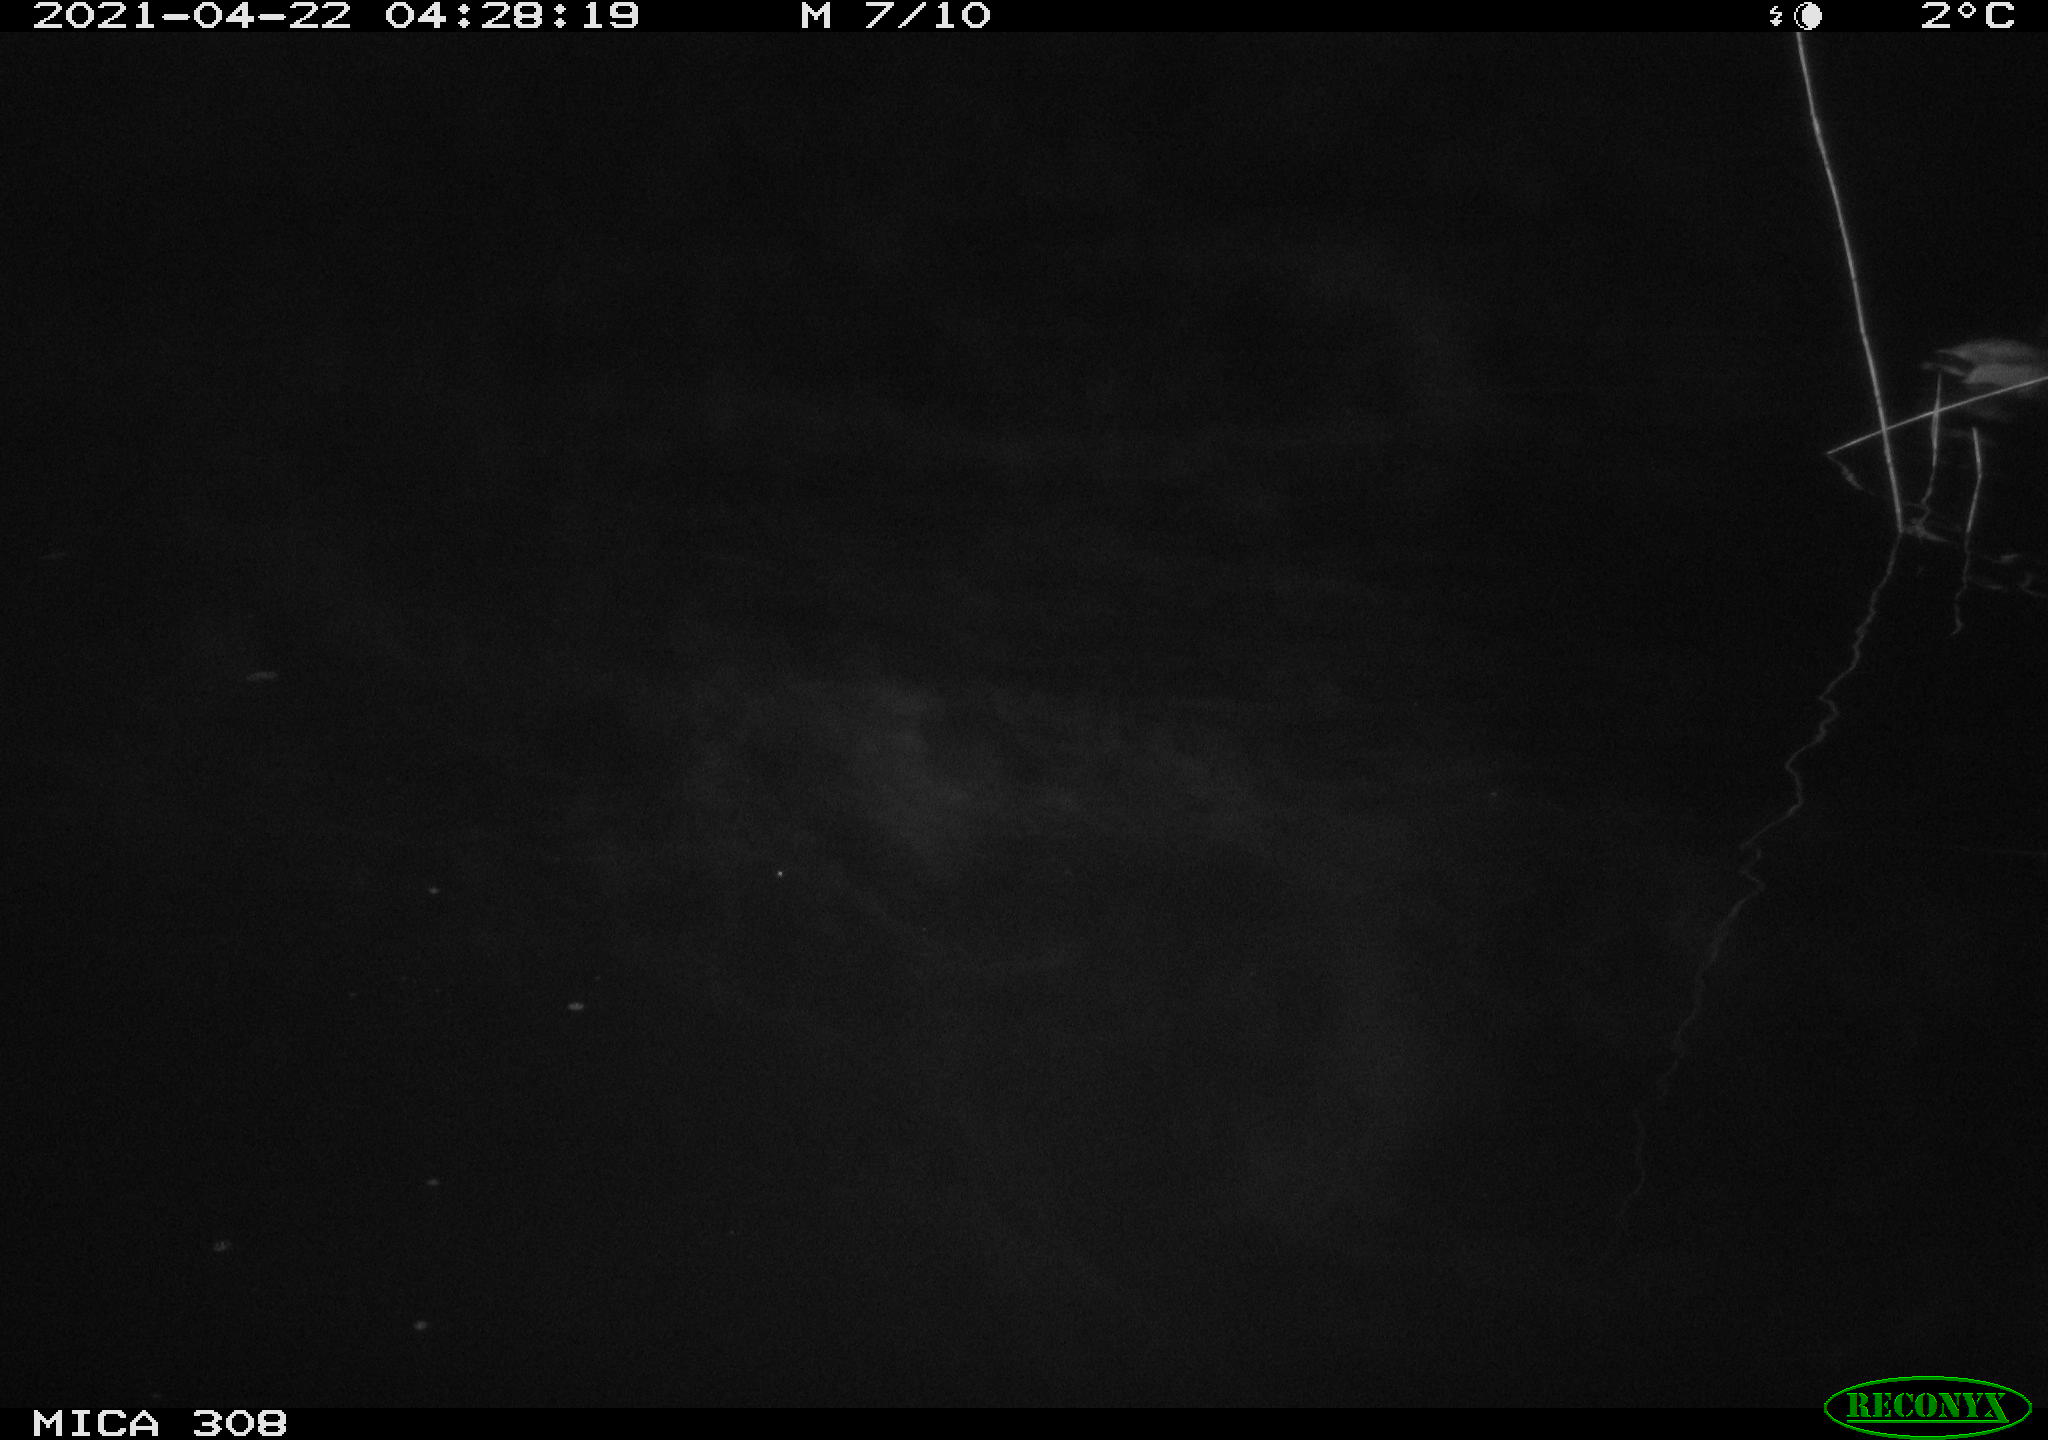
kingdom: Animalia
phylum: Chordata
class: Aves
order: Anseriformes
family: Anatidae
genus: Anas
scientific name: Anas platyrhynchos
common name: Mallard
